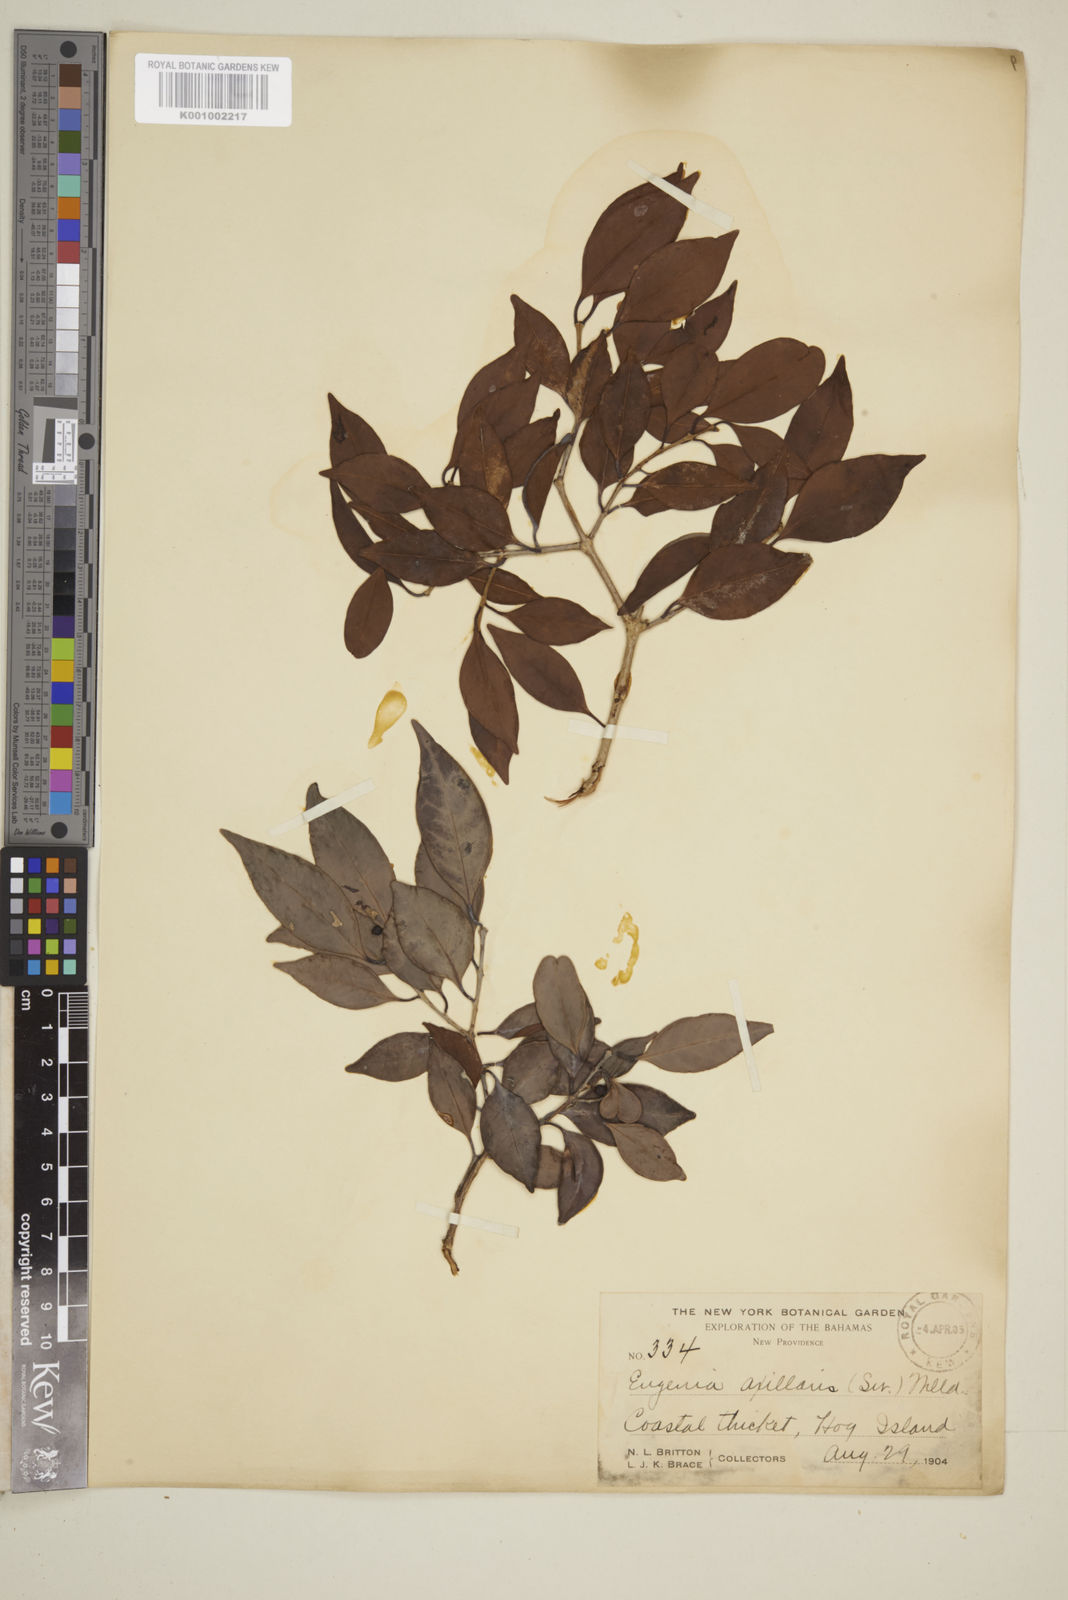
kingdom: Plantae
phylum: Tracheophyta
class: Magnoliopsida
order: Myrtales
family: Myrtaceae
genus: Eugenia
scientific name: Eugenia axillaris
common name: Choaky berry
